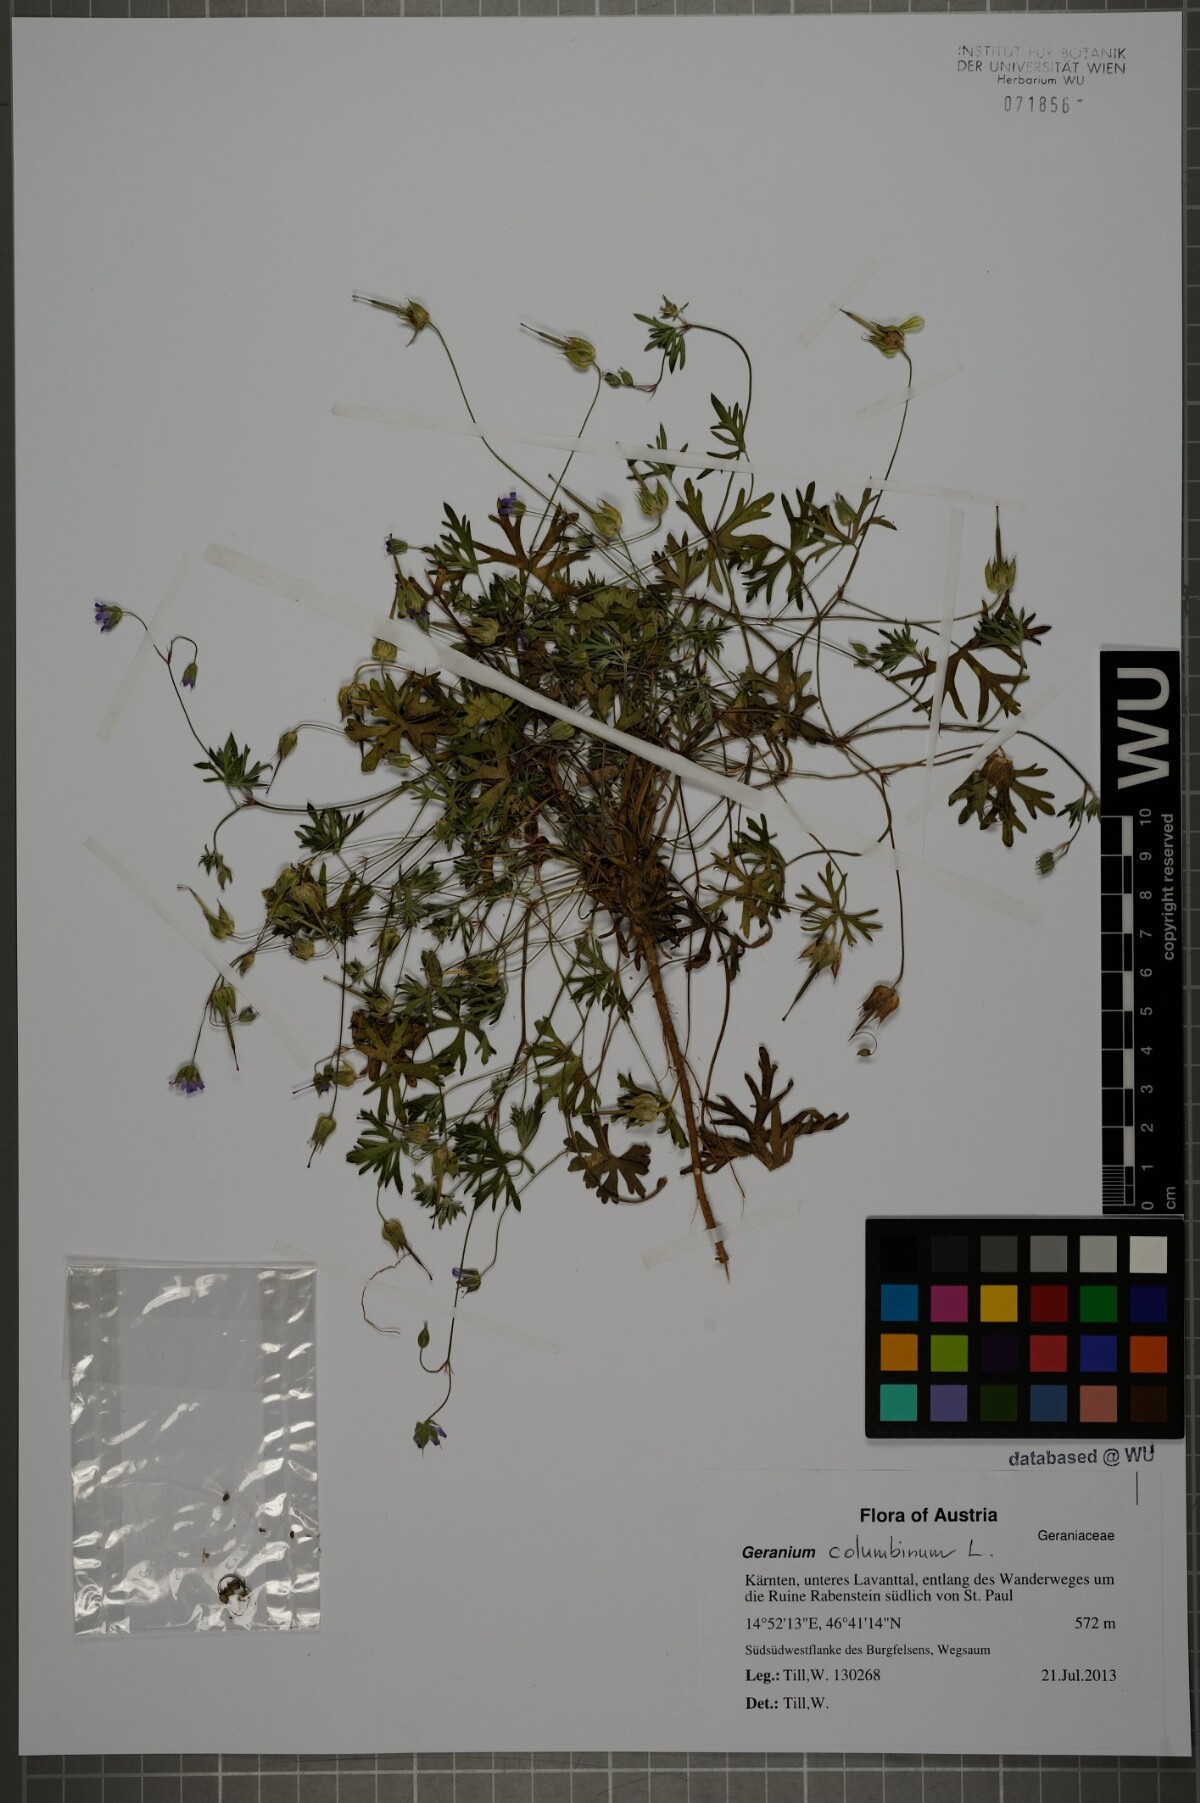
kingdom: Plantae
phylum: Tracheophyta
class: Magnoliopsida
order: Geraniales
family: Geraniaceae
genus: Geranium
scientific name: Geranium columbinum
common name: Long-stalked crane's-bill
